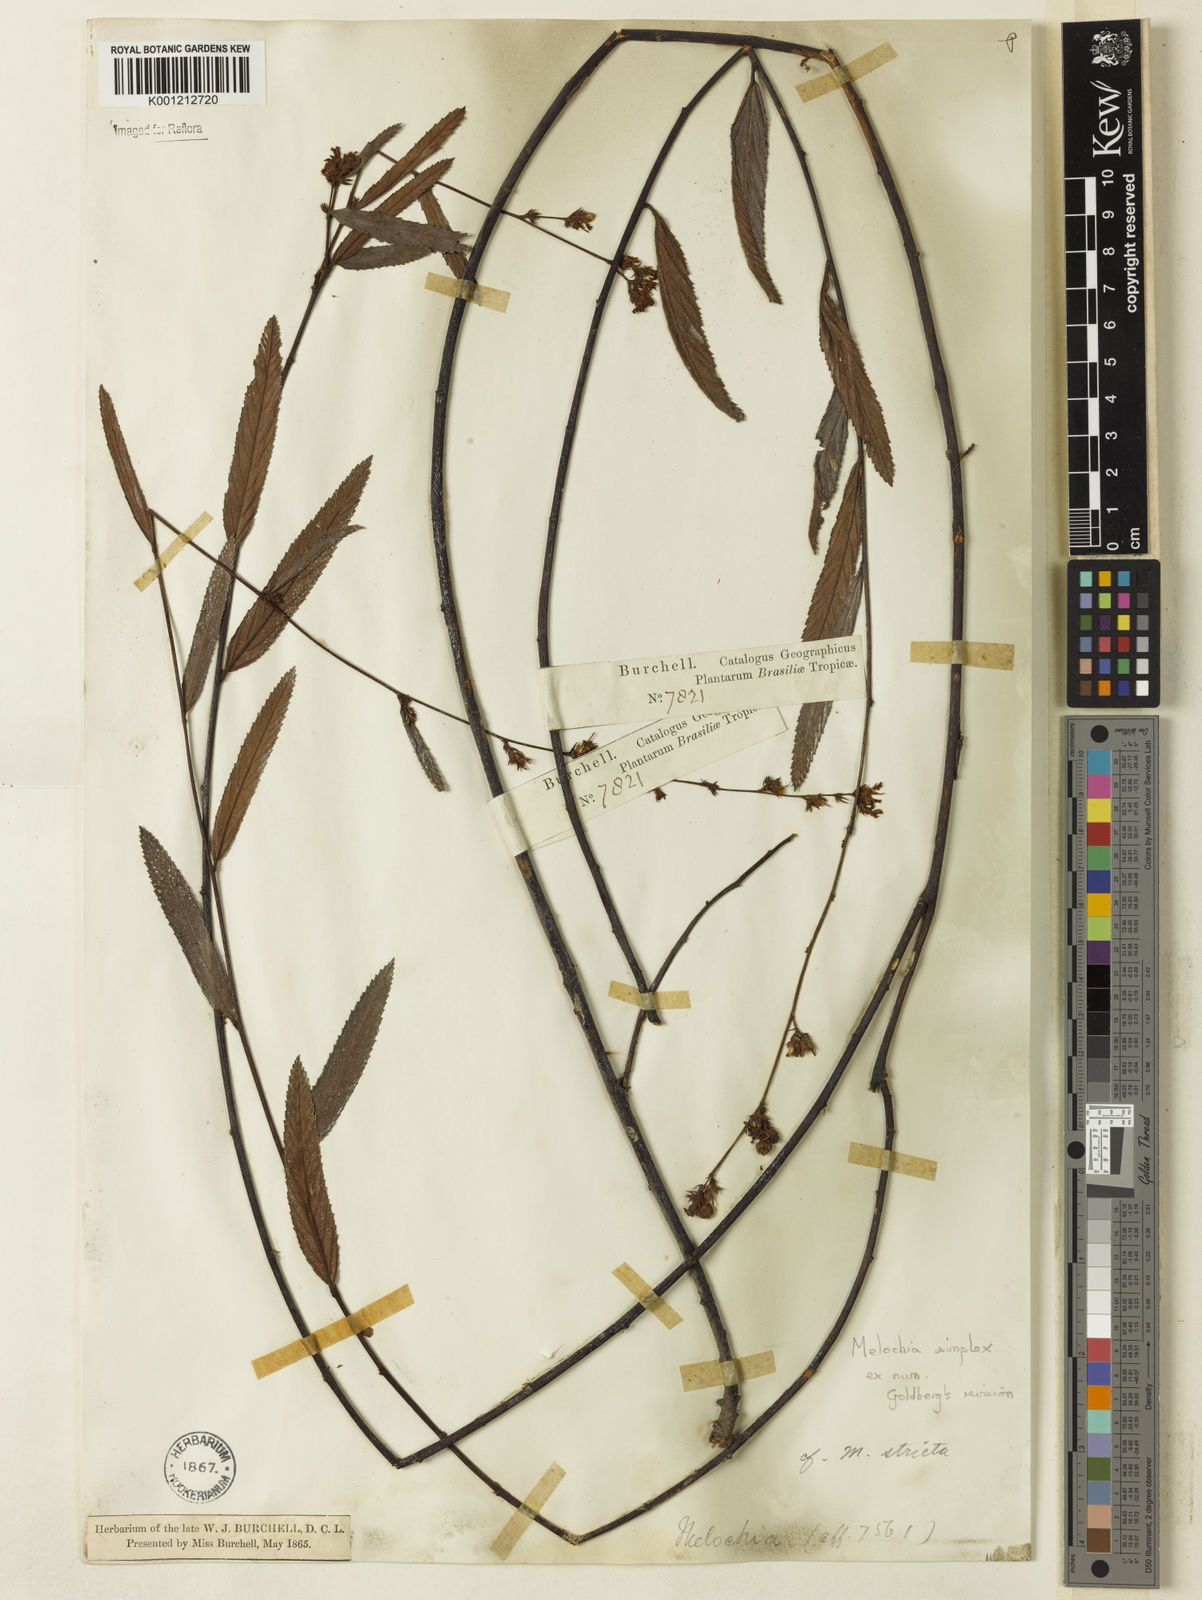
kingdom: Plantae
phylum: Tracheophyta
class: Magnoliopsida
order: Malvales
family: Malvaceae
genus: Melochia
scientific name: Melochia simplex
